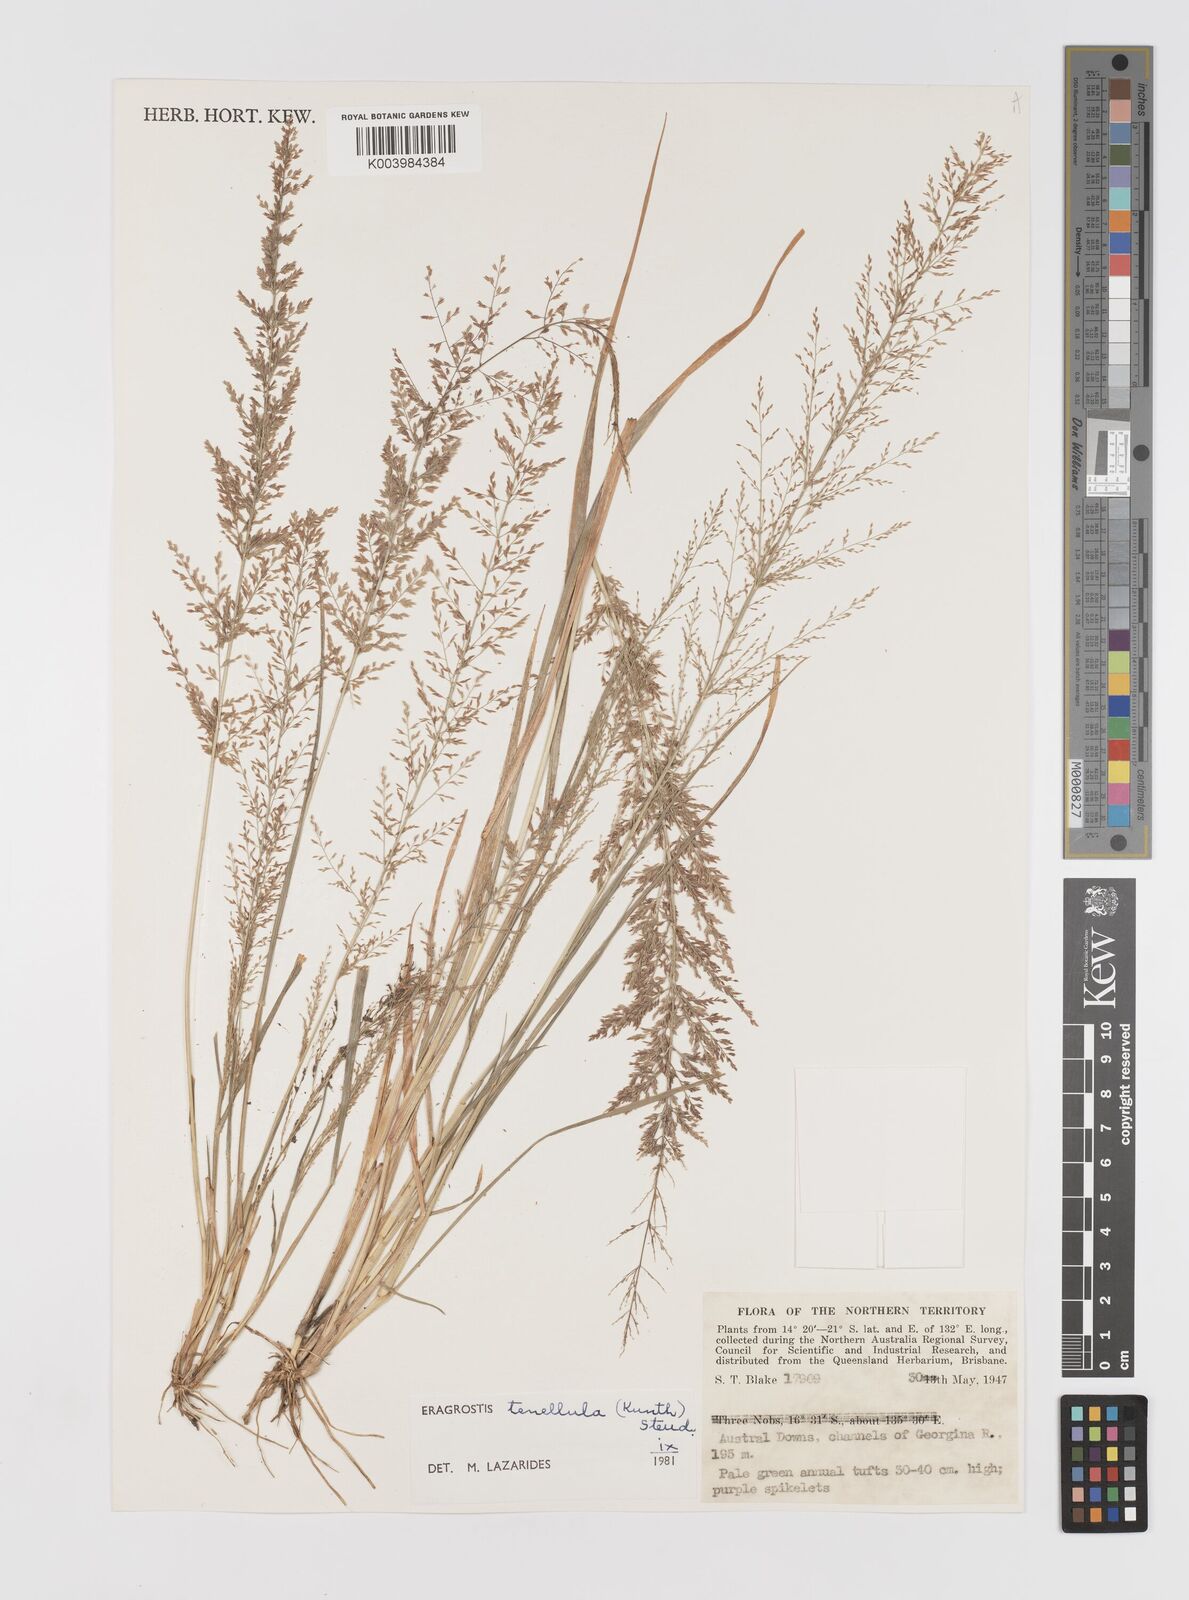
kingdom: Plantae
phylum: Tracheophyta
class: Liliopsida
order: Poales
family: Poaceae
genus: Eragrostis
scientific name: Eragrostis tenellula
